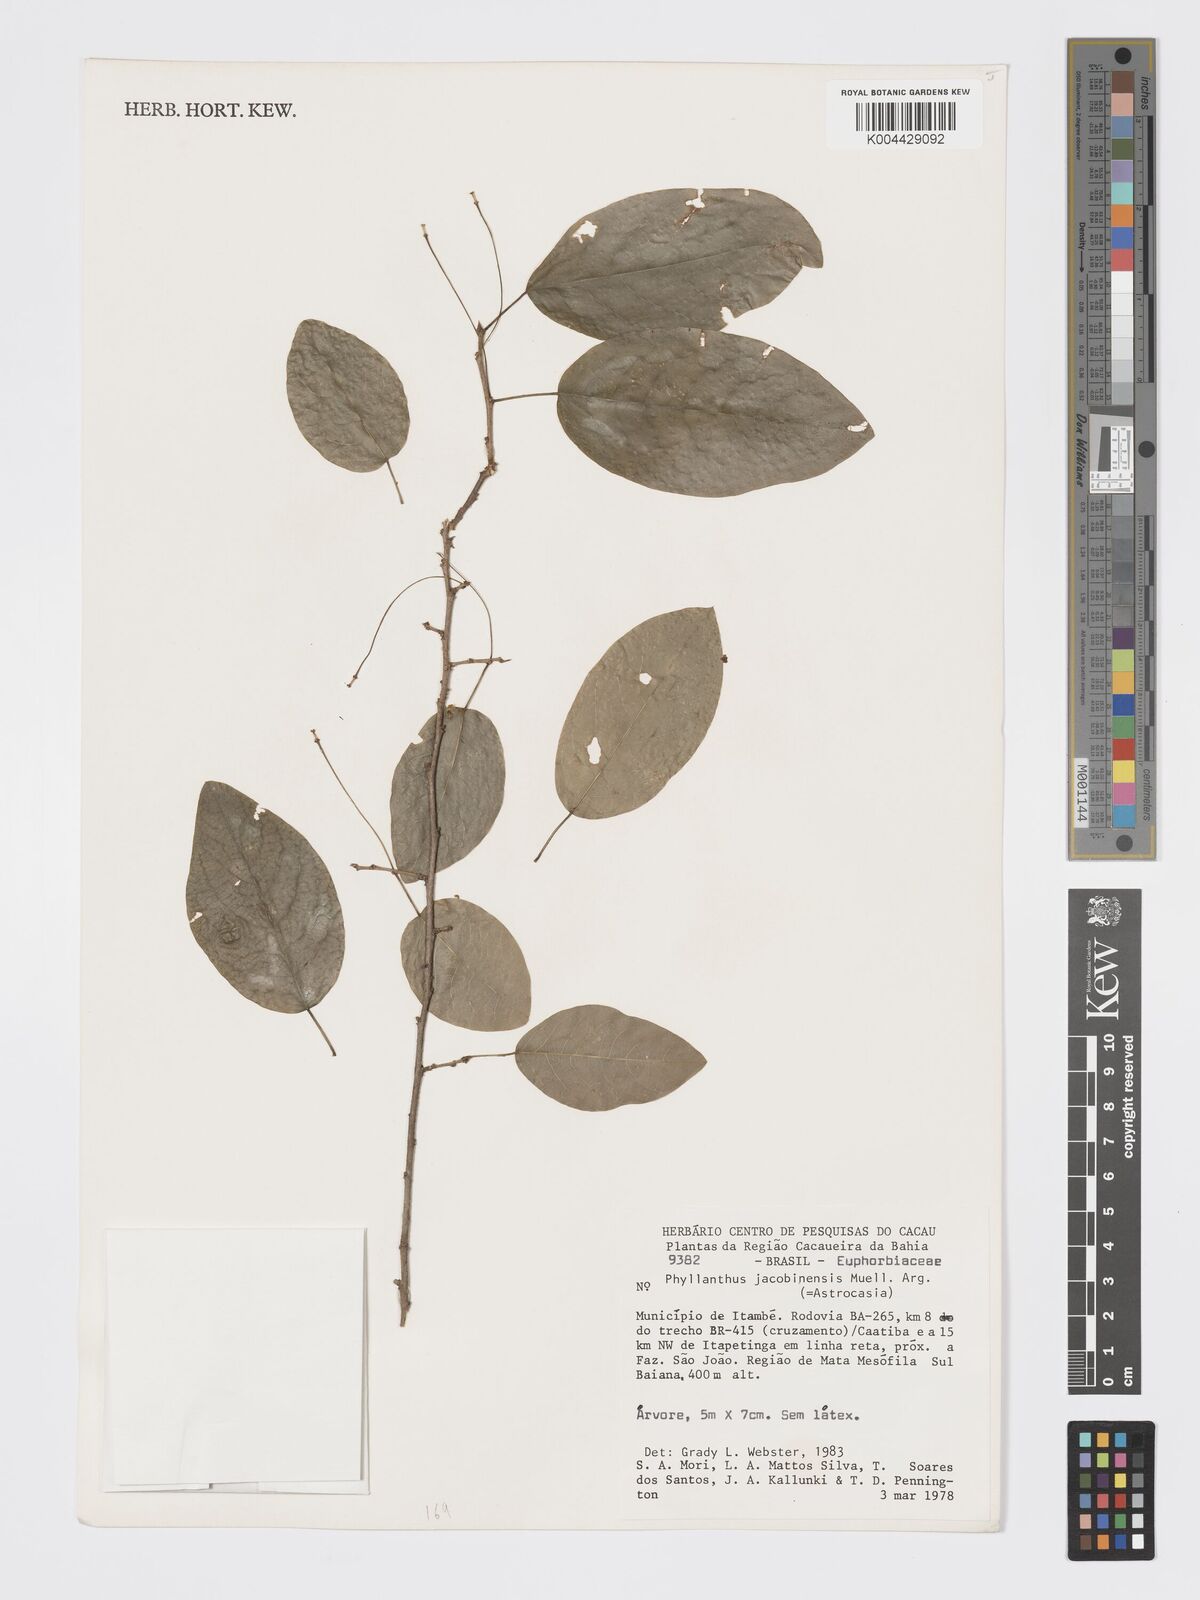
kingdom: Plantae
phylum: Tracheophyta
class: Magnoliopsida
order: Malpighiales
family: Phyllanthaceae
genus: Astrocasia
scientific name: Astrocasia jacobinensis
